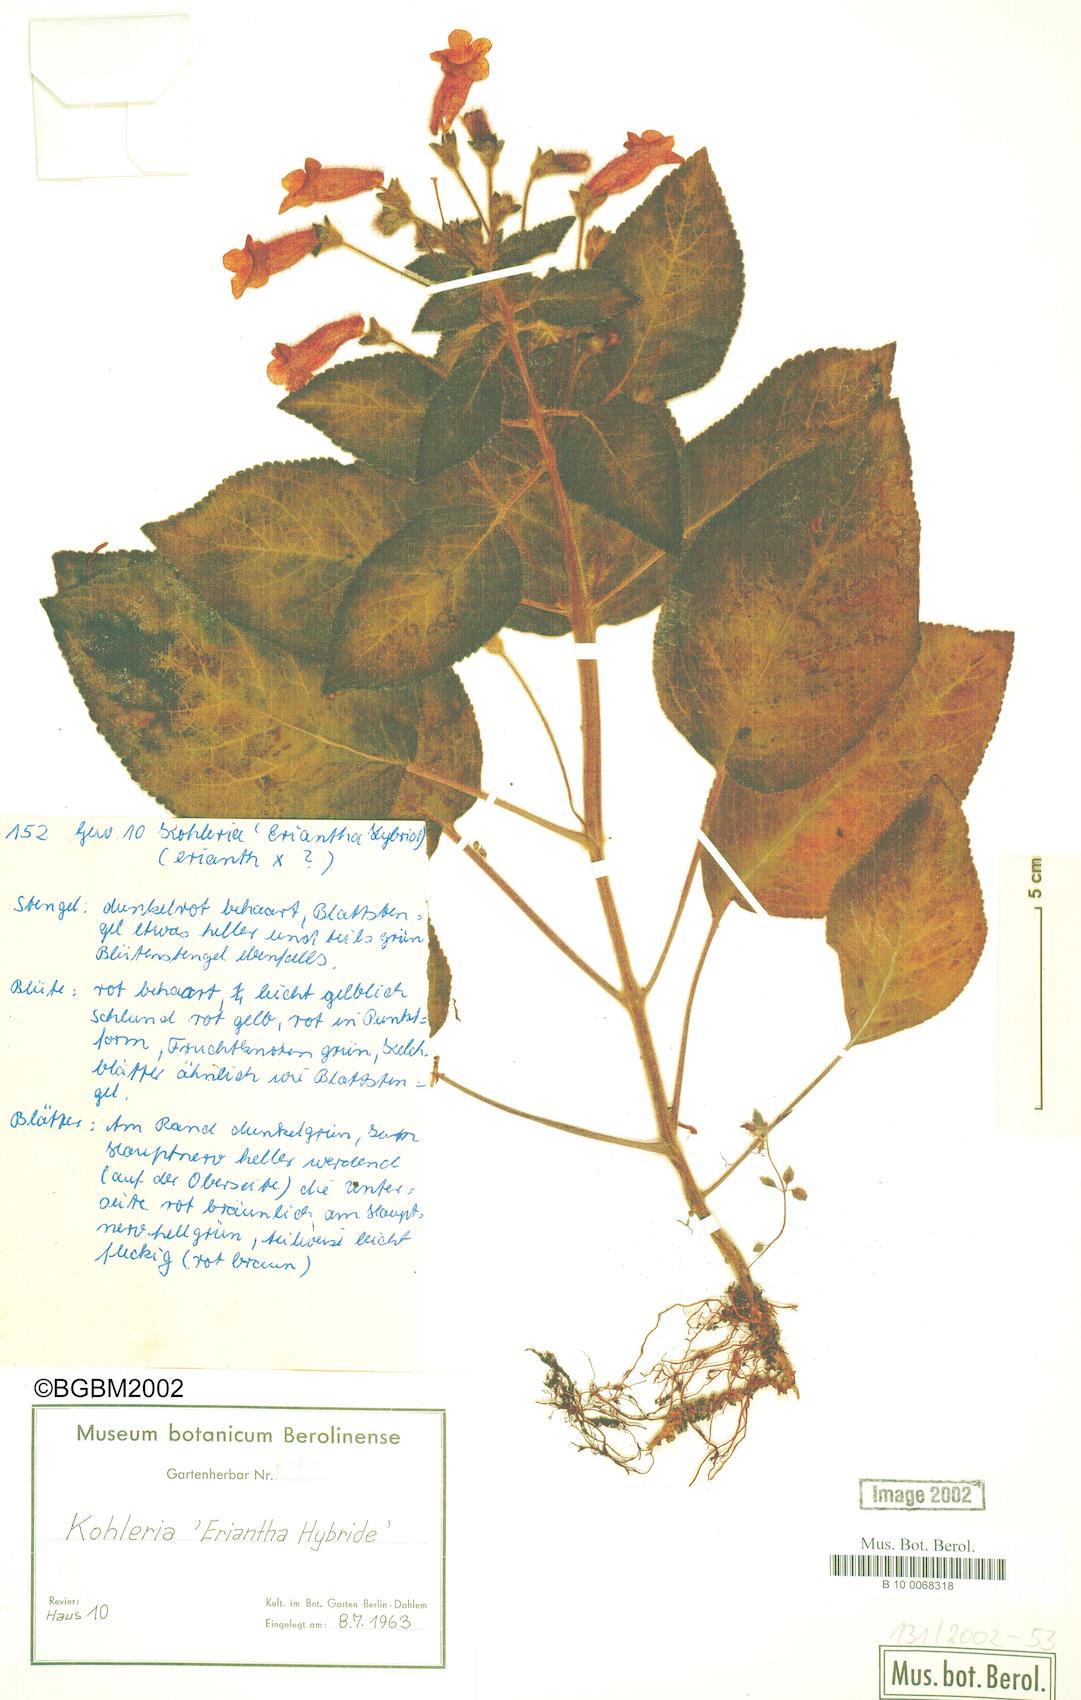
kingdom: Plantae
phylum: Tracheophyta
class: Magnoliopsida
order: Lamiales
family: Gesneriaceae
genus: Kohleria
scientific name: Kohleria
